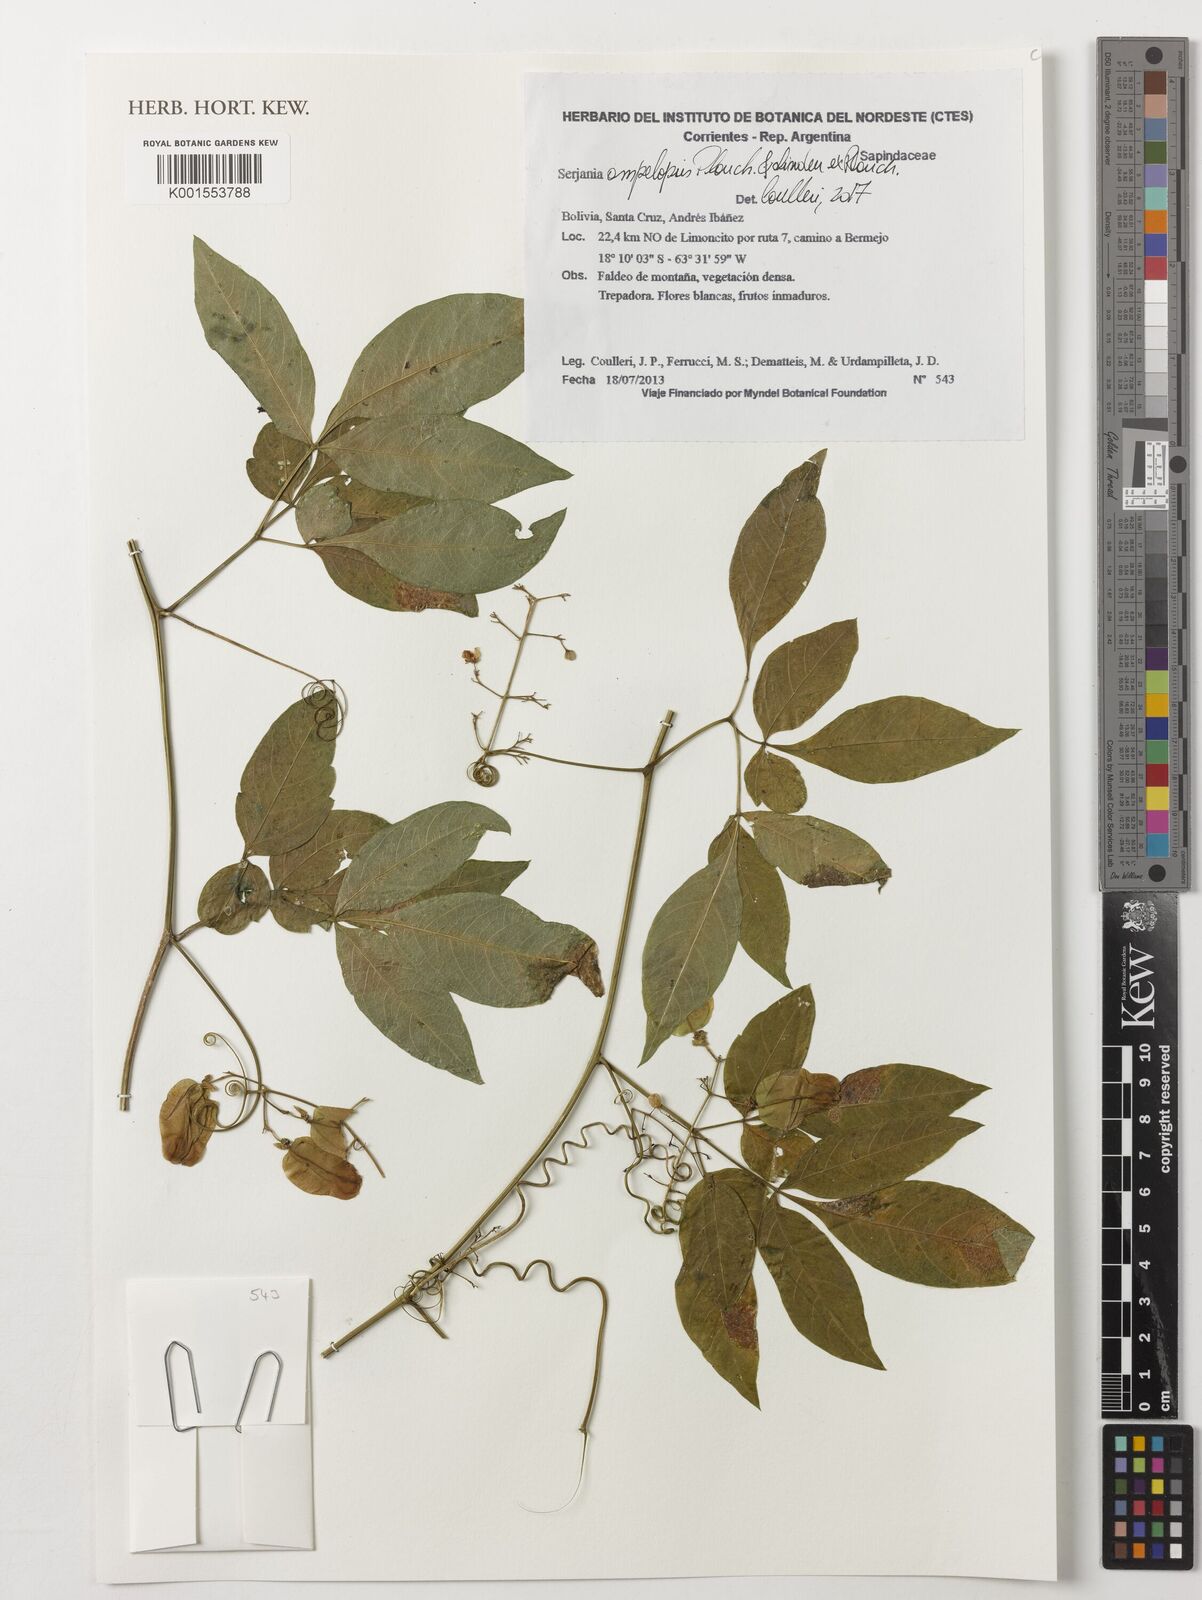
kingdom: Plantae
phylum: Tracheophyta
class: Magnoliopsida
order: Sapindales
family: Sapindaceae
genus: Serjania
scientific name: Serjania ampelopsis
